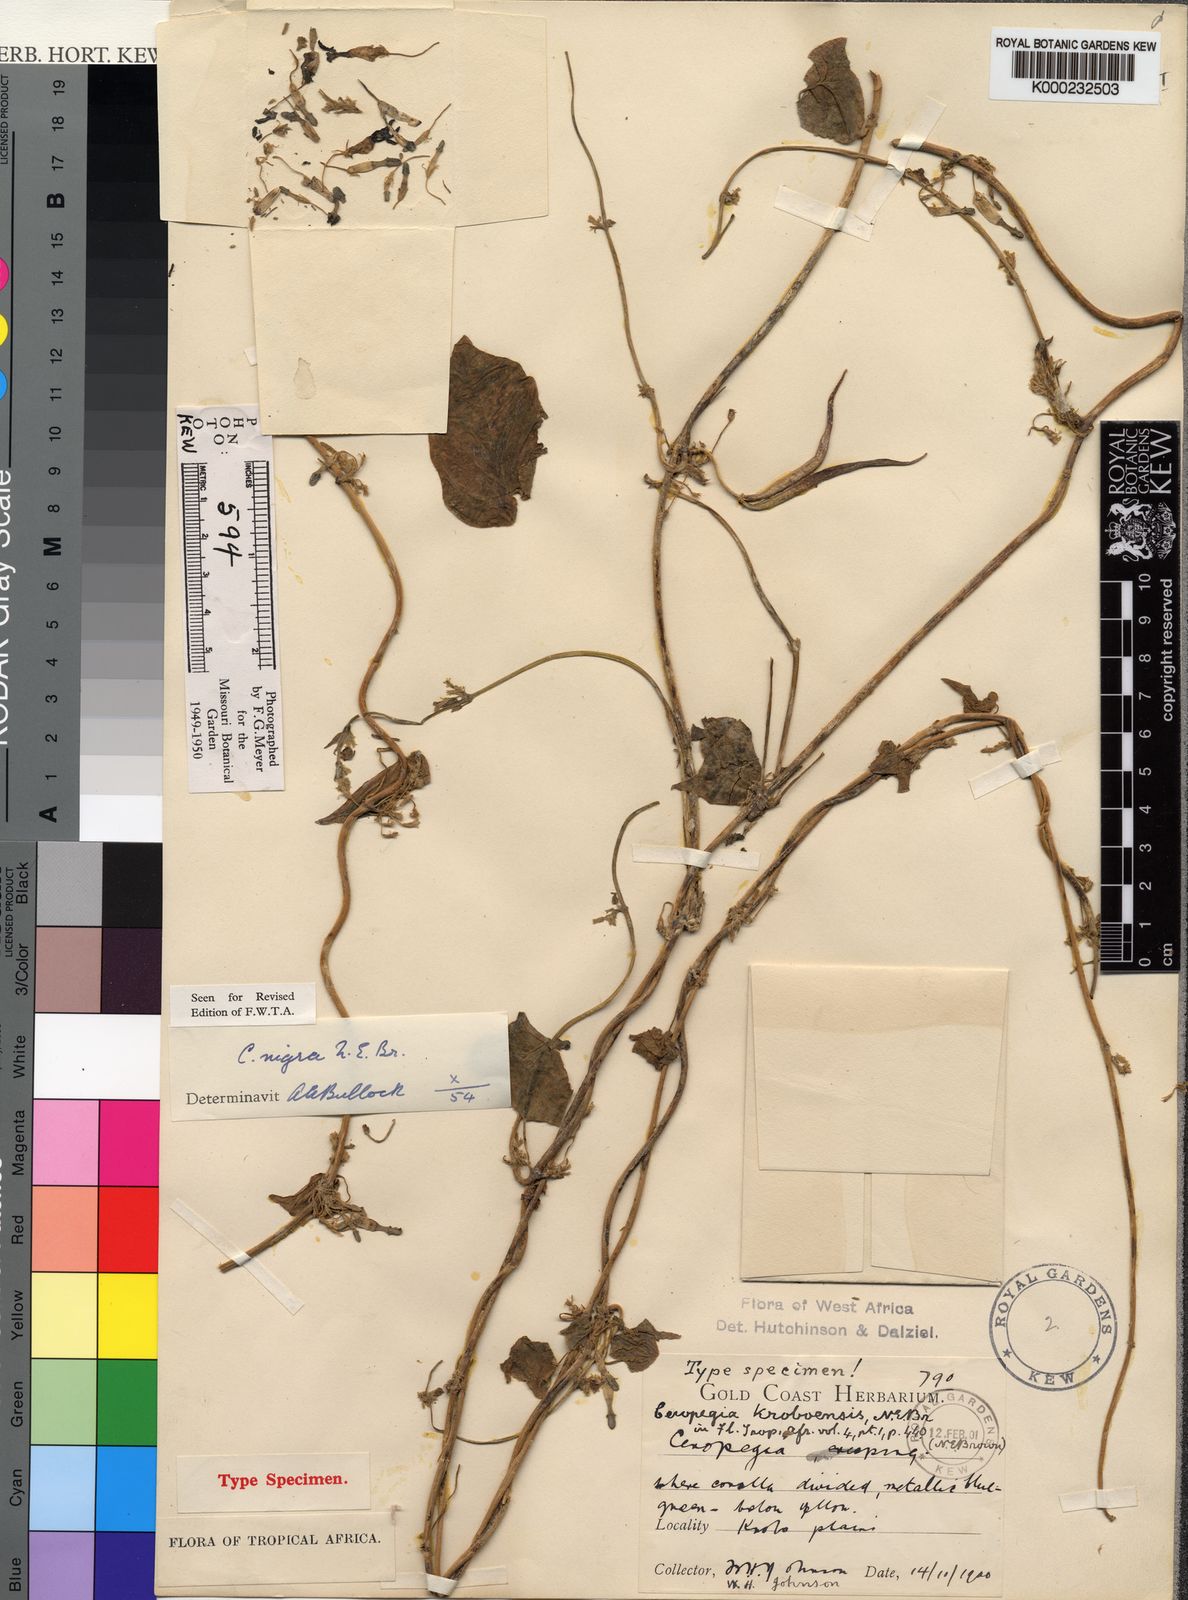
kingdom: Plantae
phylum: Tracheophyta
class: Magnoliopsida
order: Gentianales
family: Apocynaceae
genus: Ceropegia
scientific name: Ceropegia nigra
